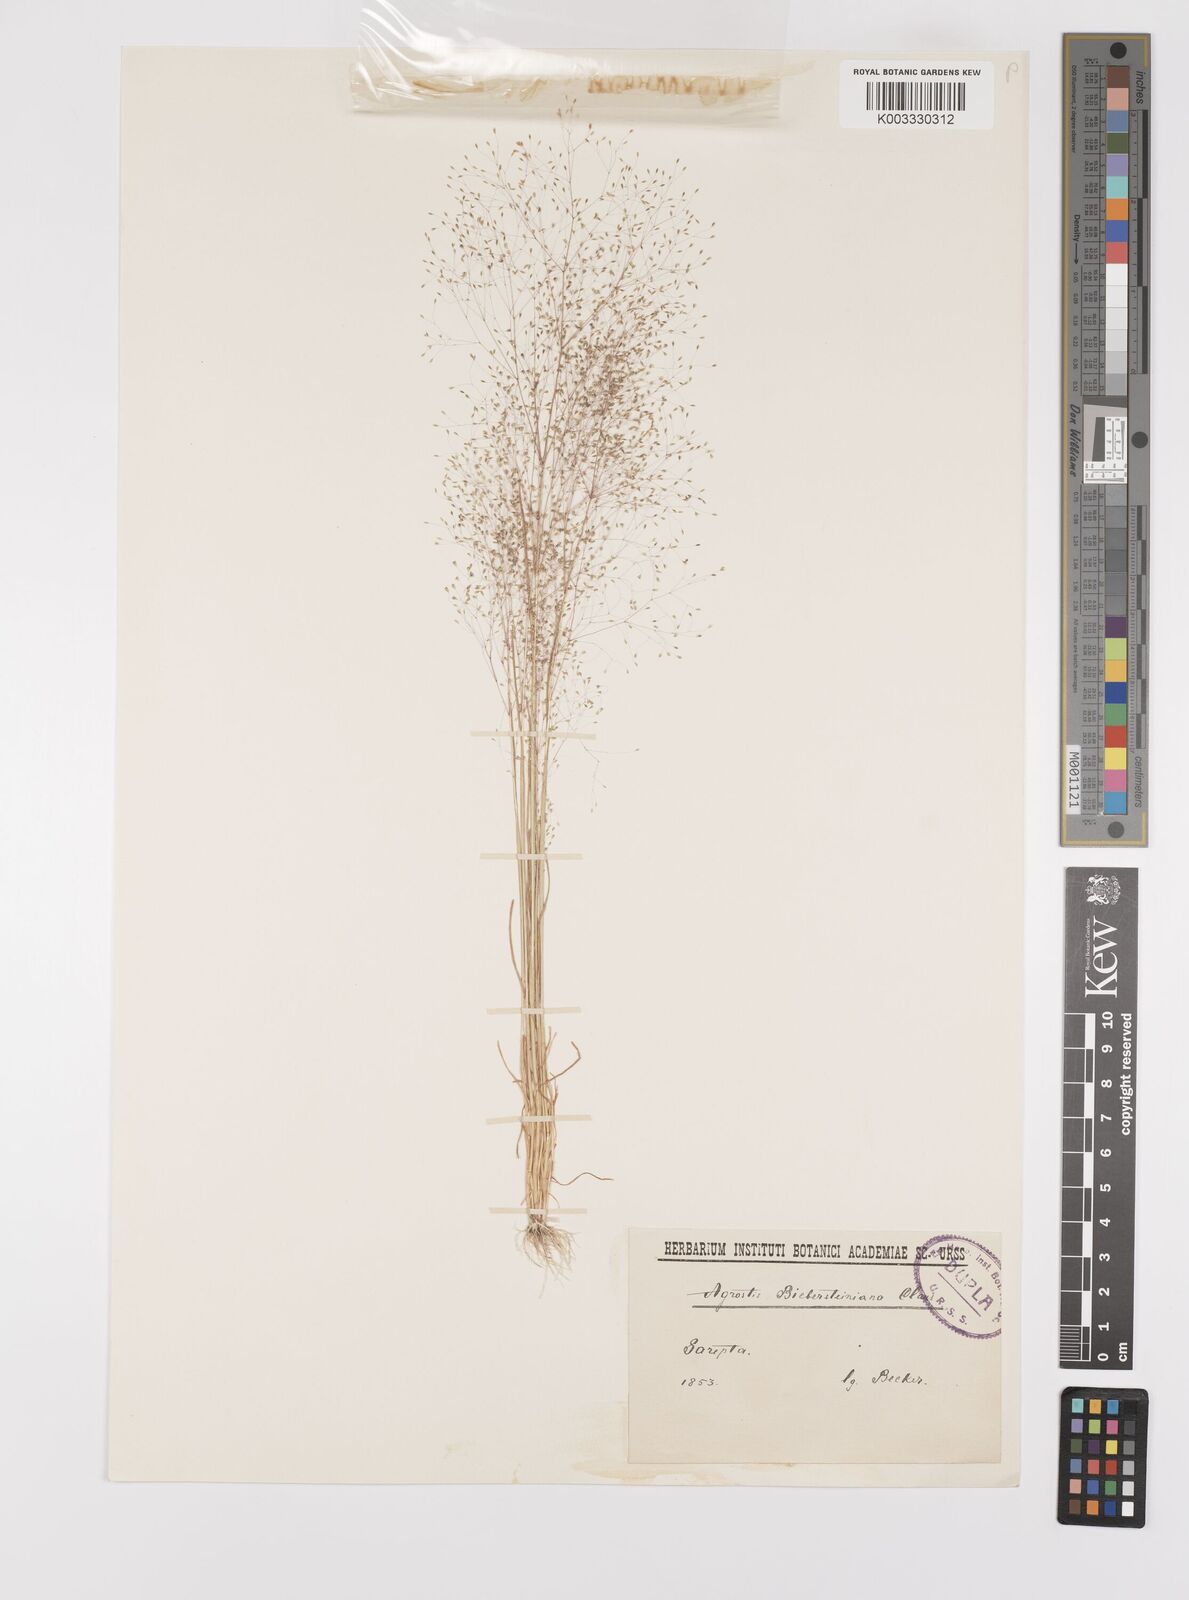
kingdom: Plantae
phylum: Tracheophyta
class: Liliopsida
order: Poales
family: Poaceae
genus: Colpodium
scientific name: Colpodium biebersteinianum
